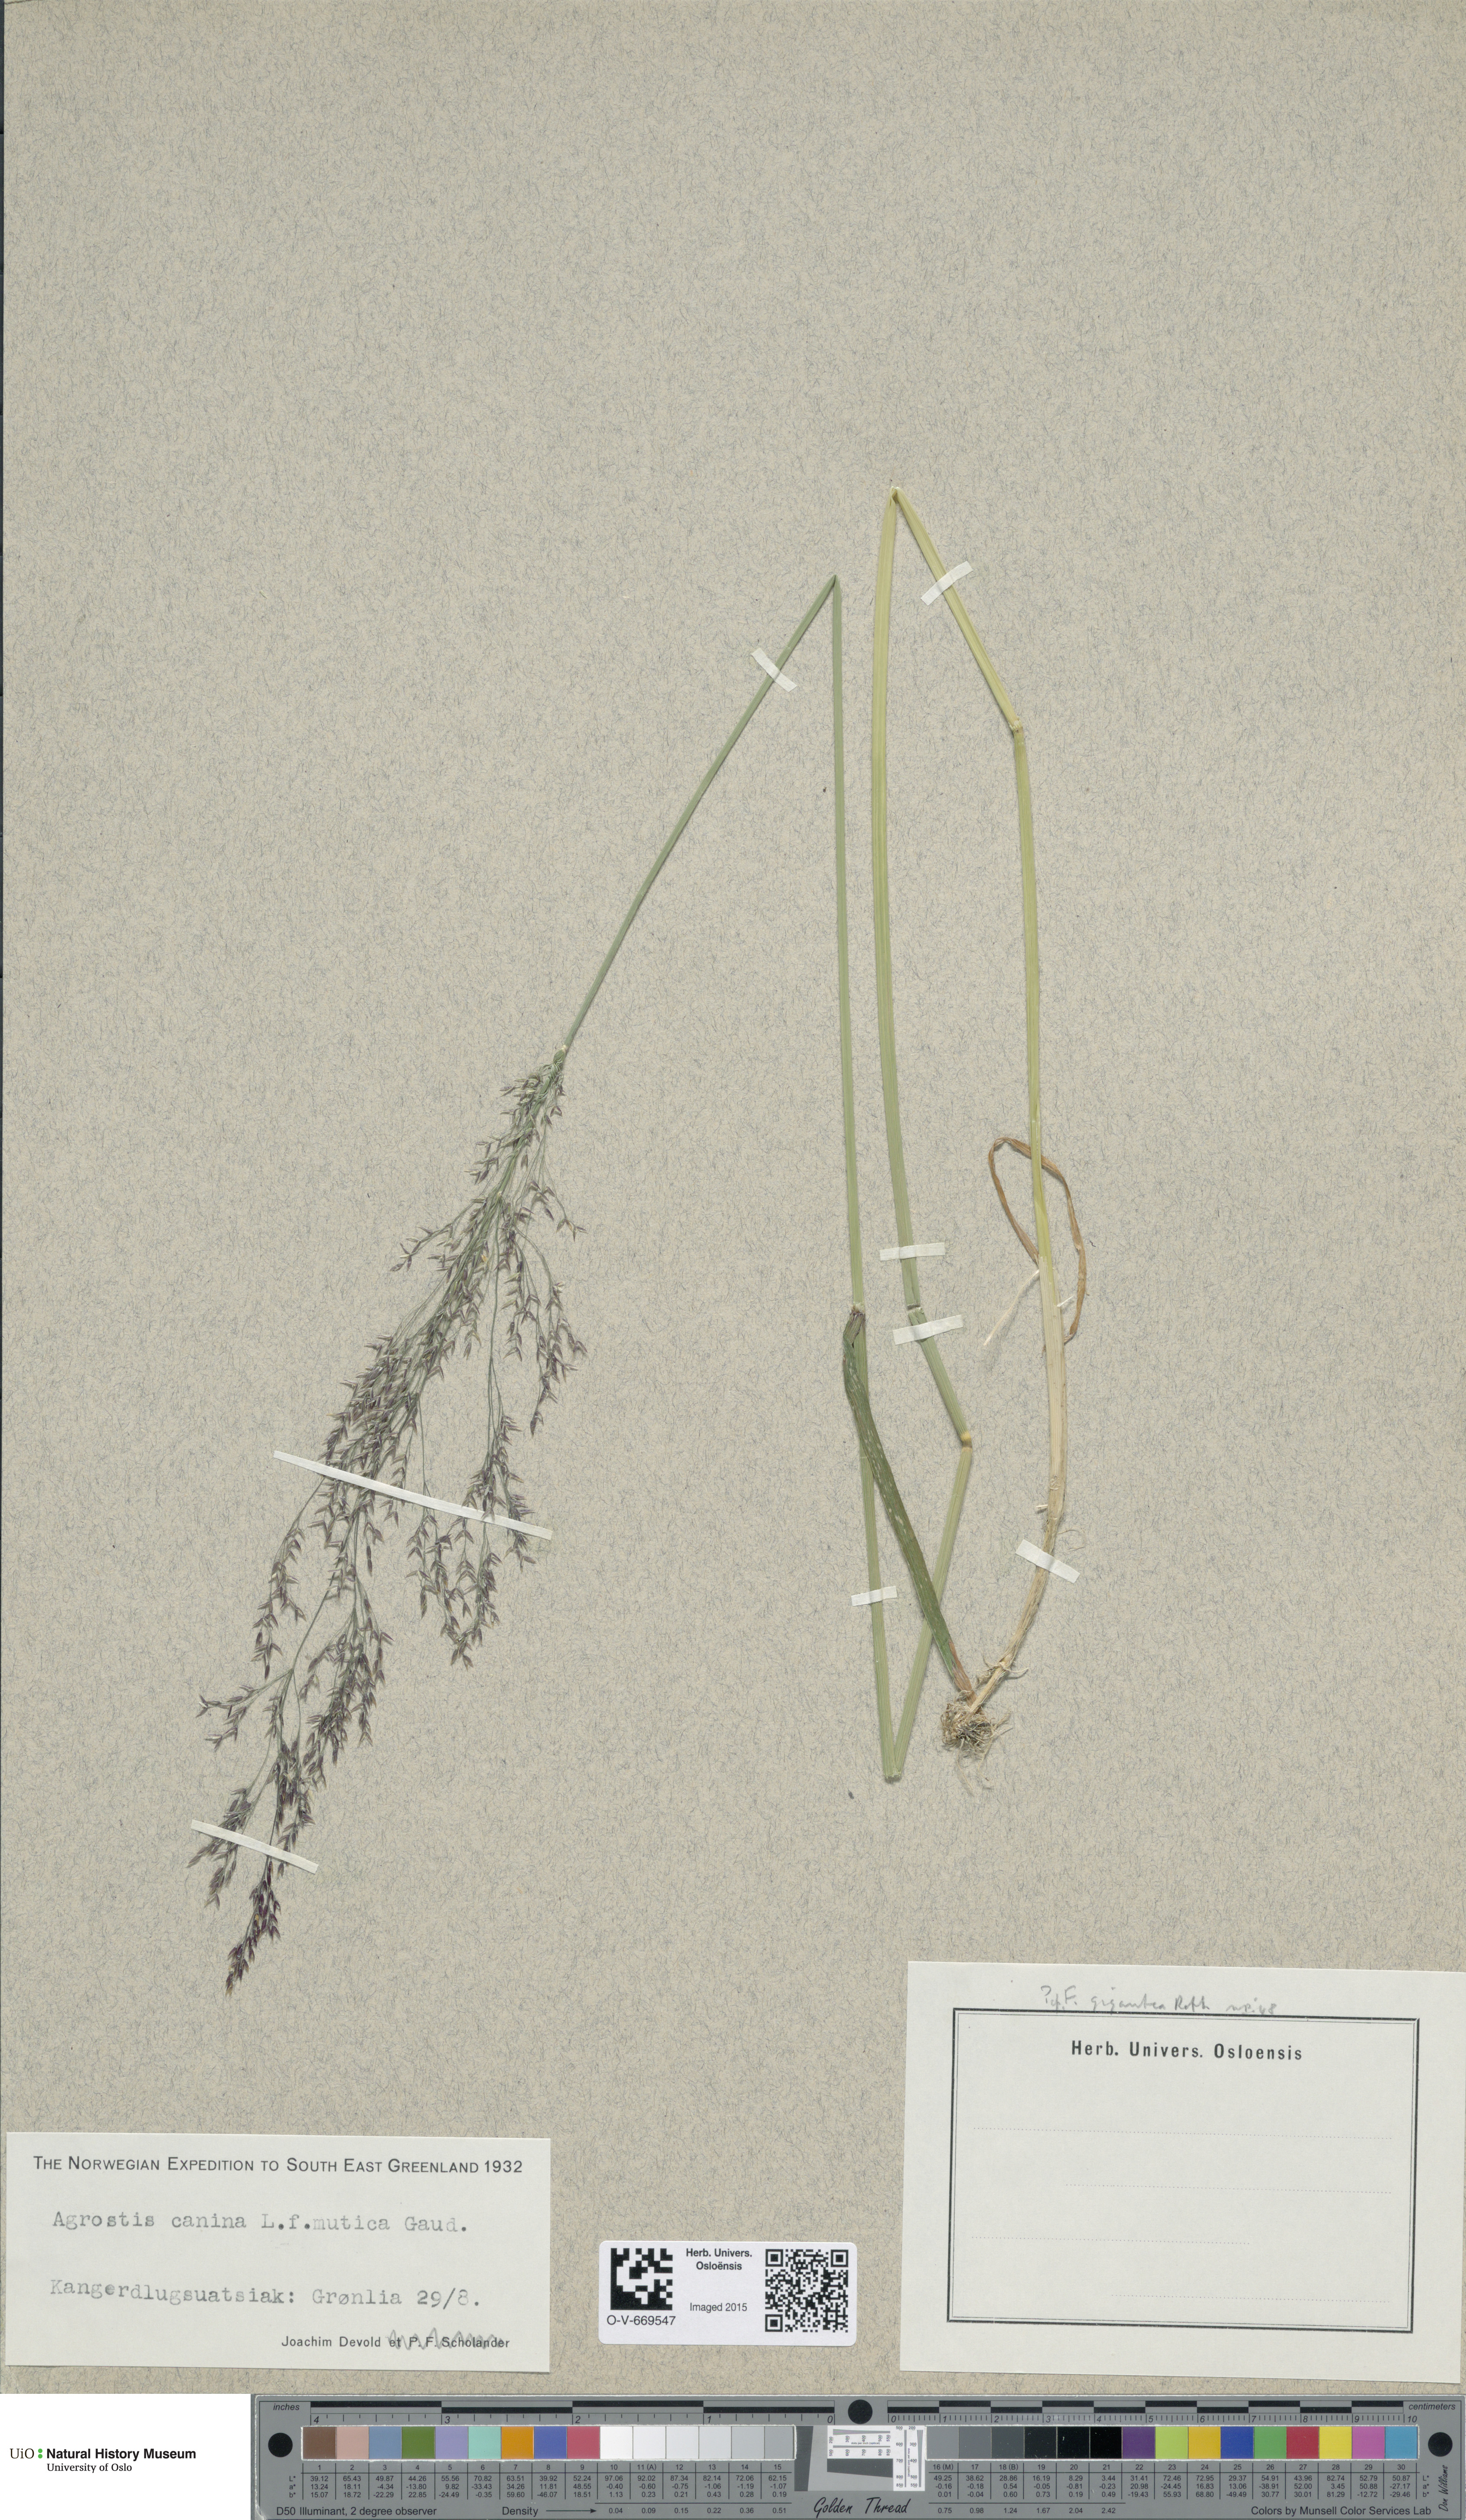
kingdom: Plantae
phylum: Tracheophyta
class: Liliopsida
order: Poales
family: Poaceae
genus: Agrostis
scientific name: Agrostis canina
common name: Velvet bent
